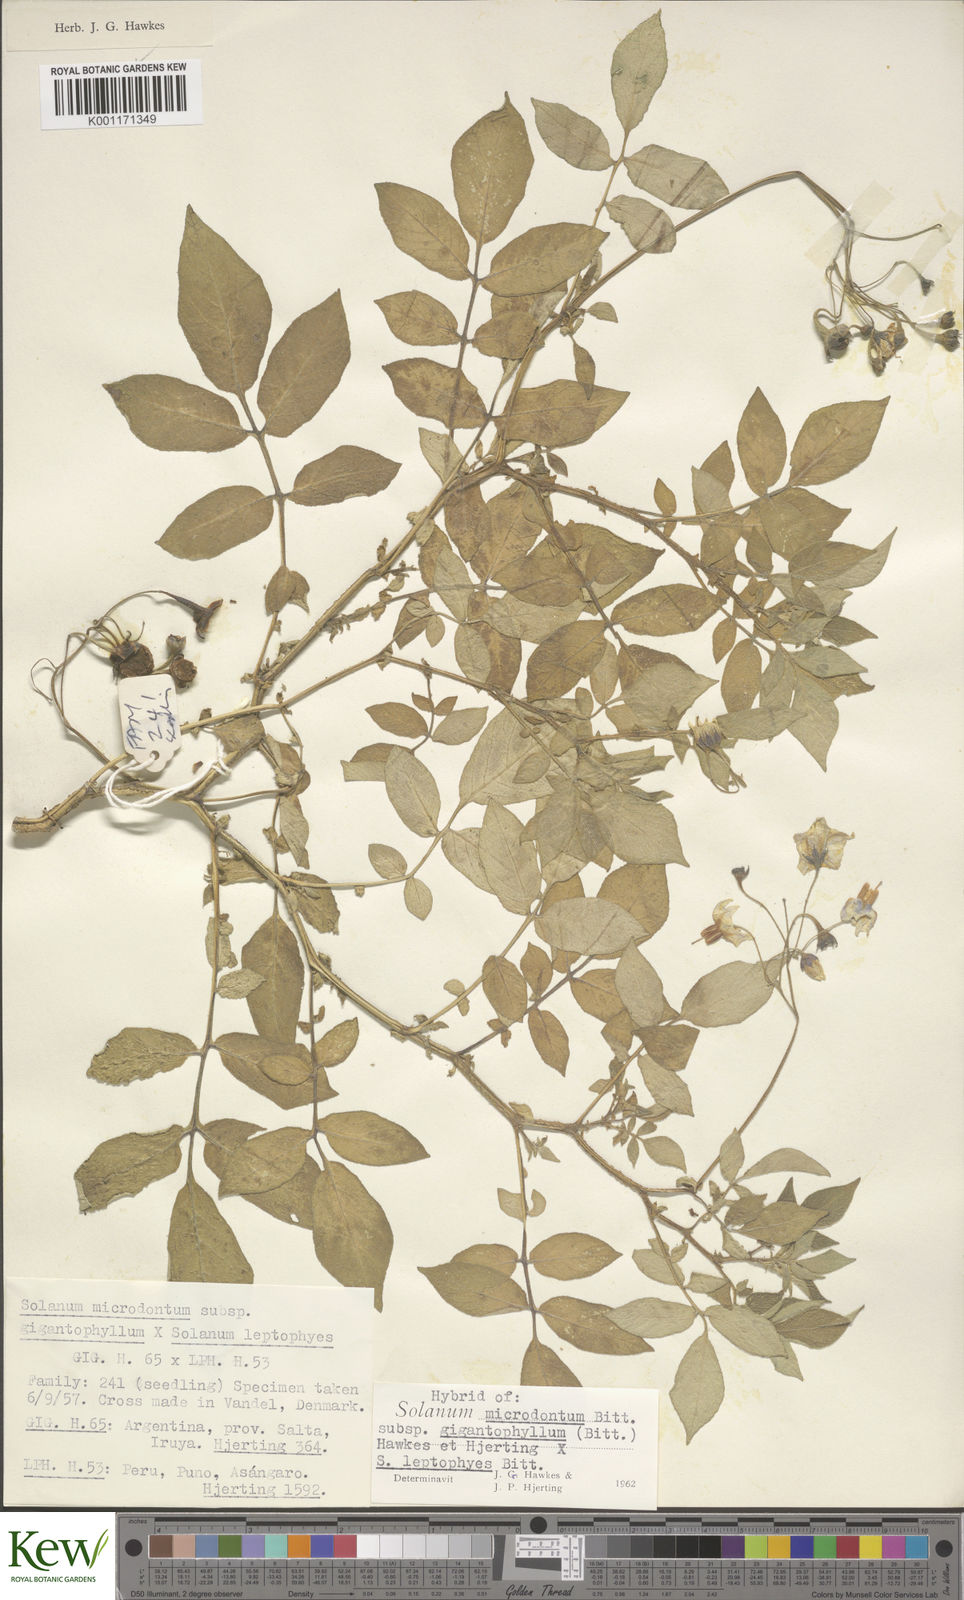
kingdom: Plantae
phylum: Tracheophyta
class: Magnoliopsida
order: Solanales
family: Solanaceae
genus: Solanum
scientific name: Solanum microdontum
